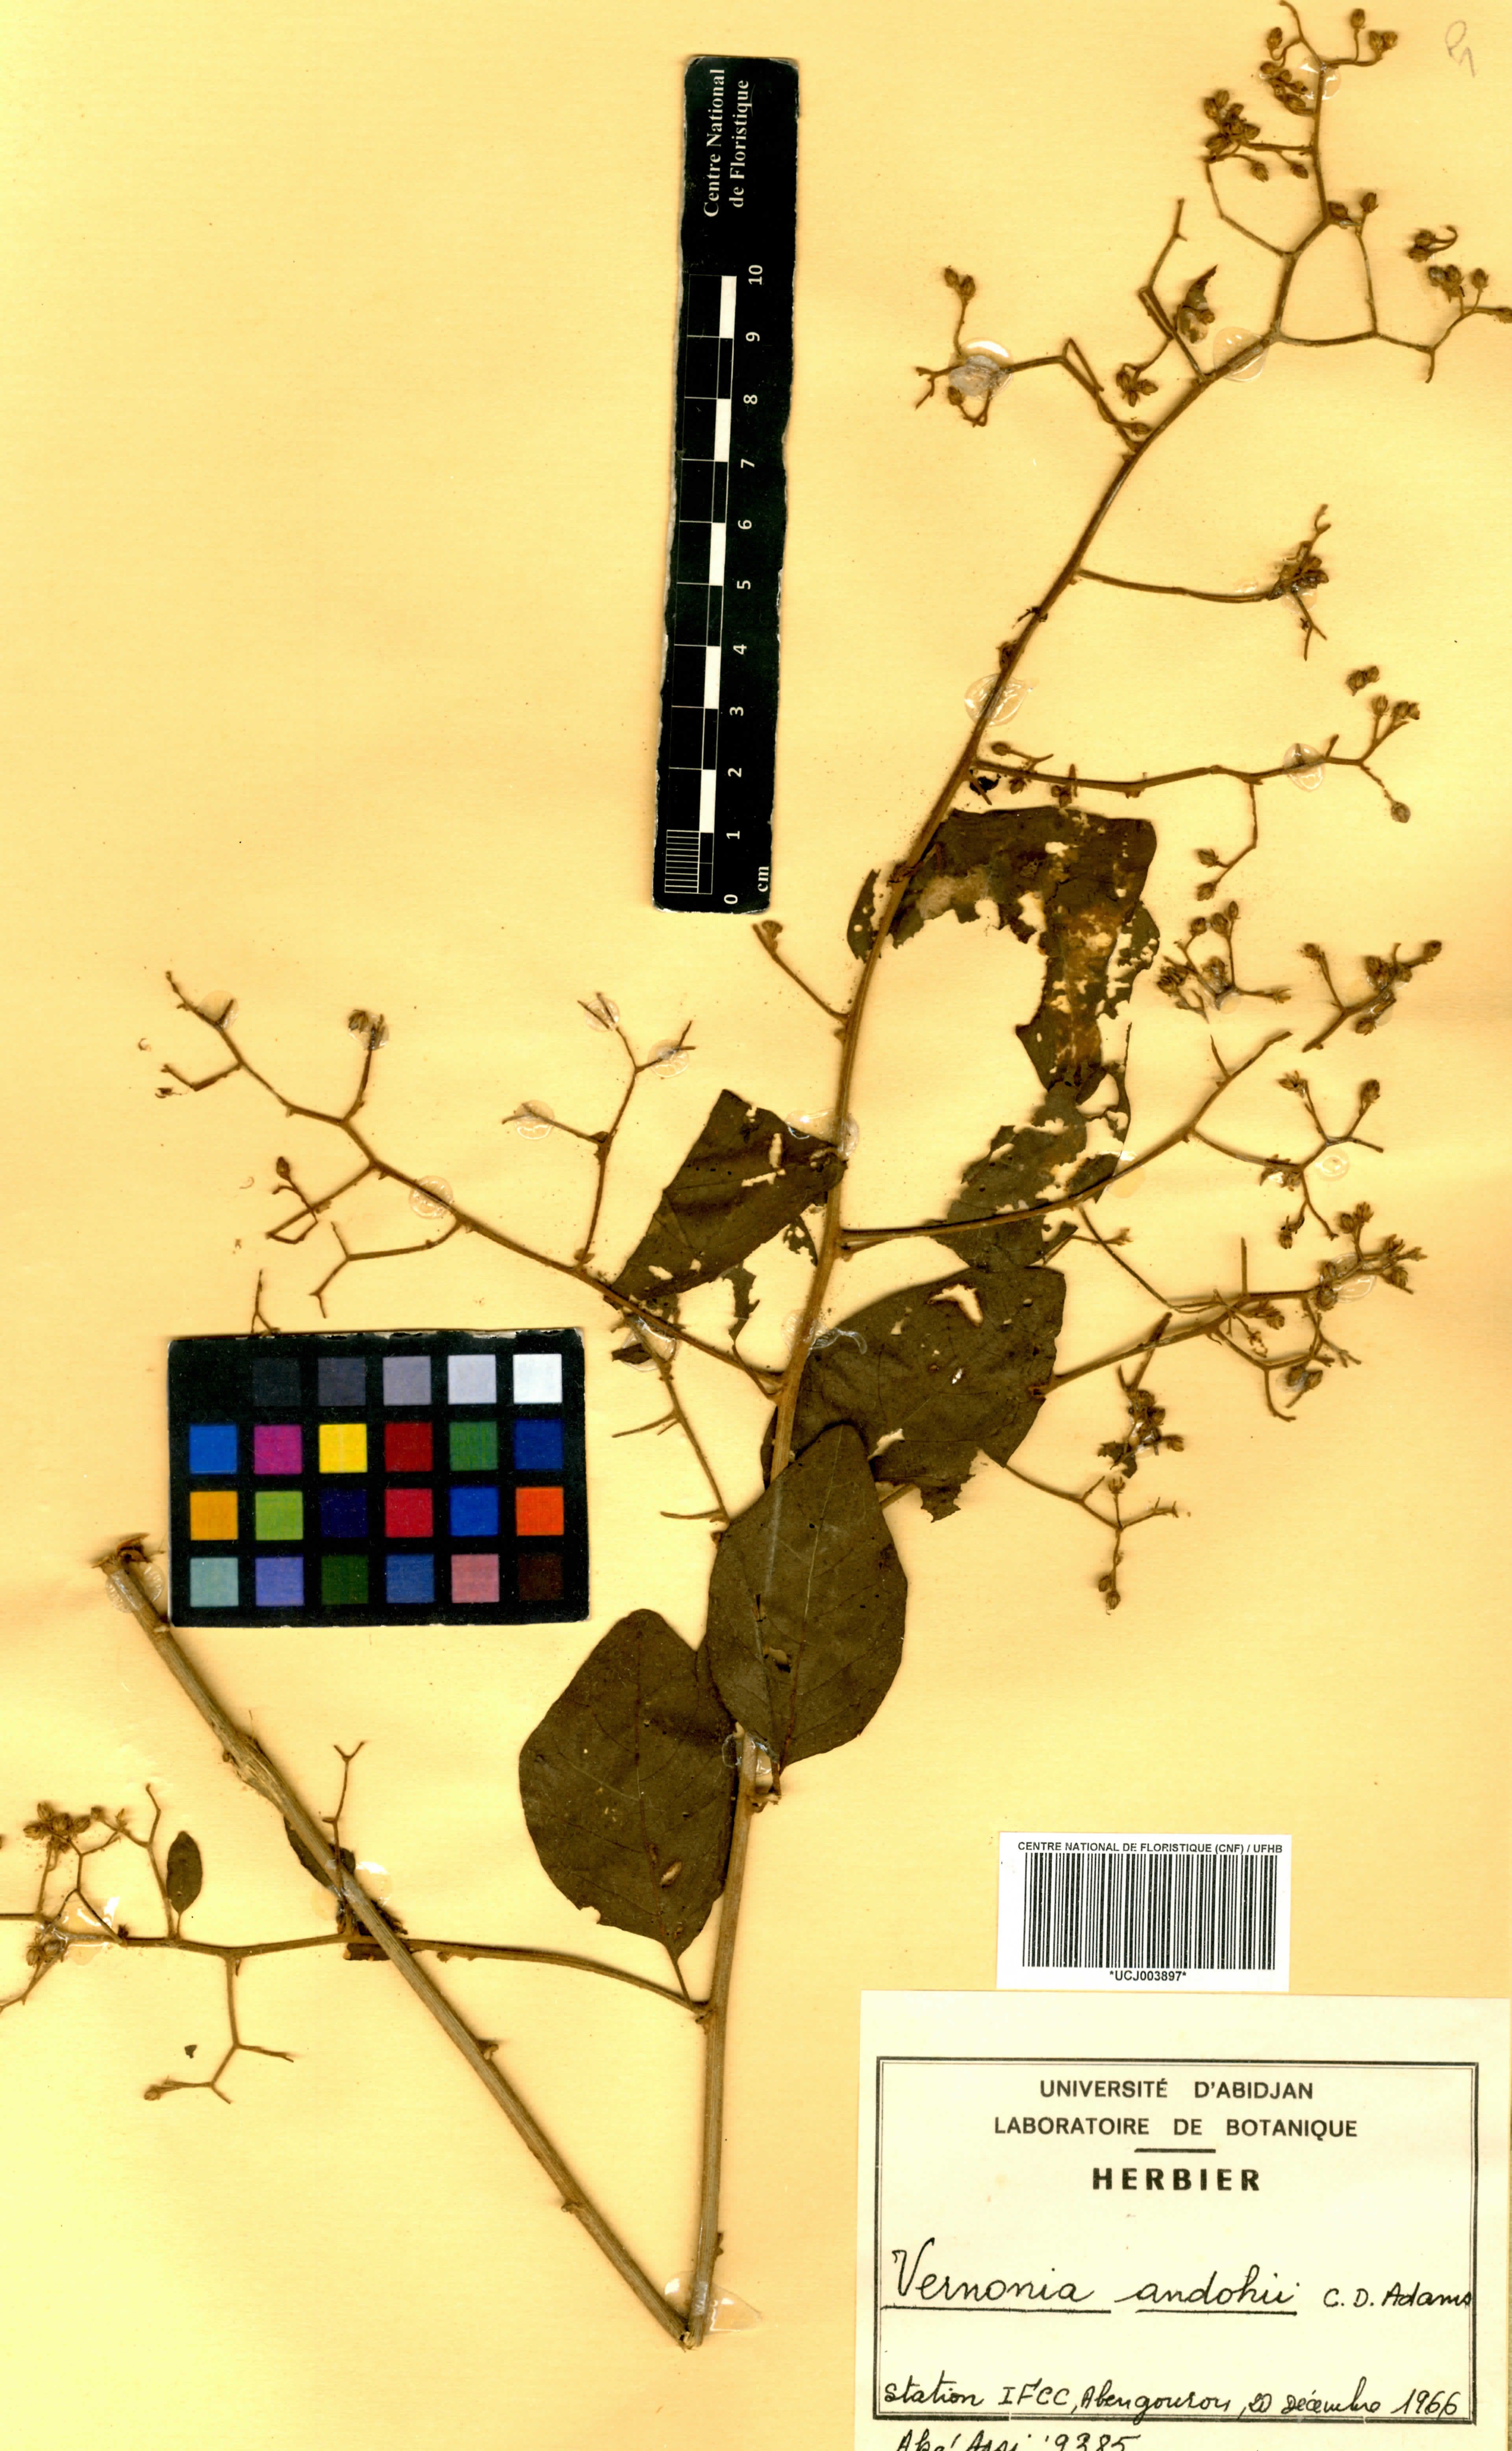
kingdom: Plantae
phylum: Tracheophyta
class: Magnoliopsida
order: Asterales
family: Asteraceae
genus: Brenandendron
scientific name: Brenandendron donianum
